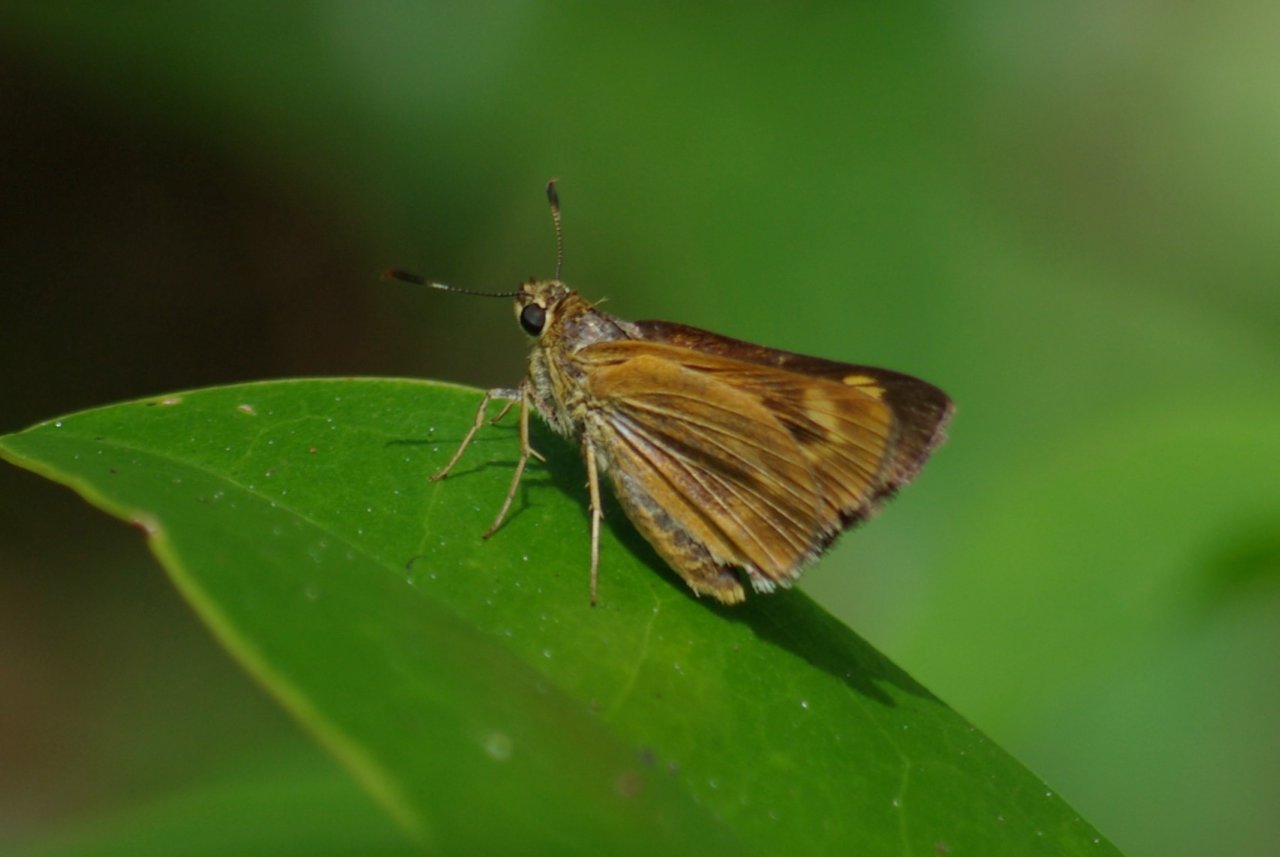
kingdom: Animalia
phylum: Arthropoda
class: Insecta
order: Lepidoptera
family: Hesperiidae
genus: Problema
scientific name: Problema byssus
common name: Byssus Skipper
